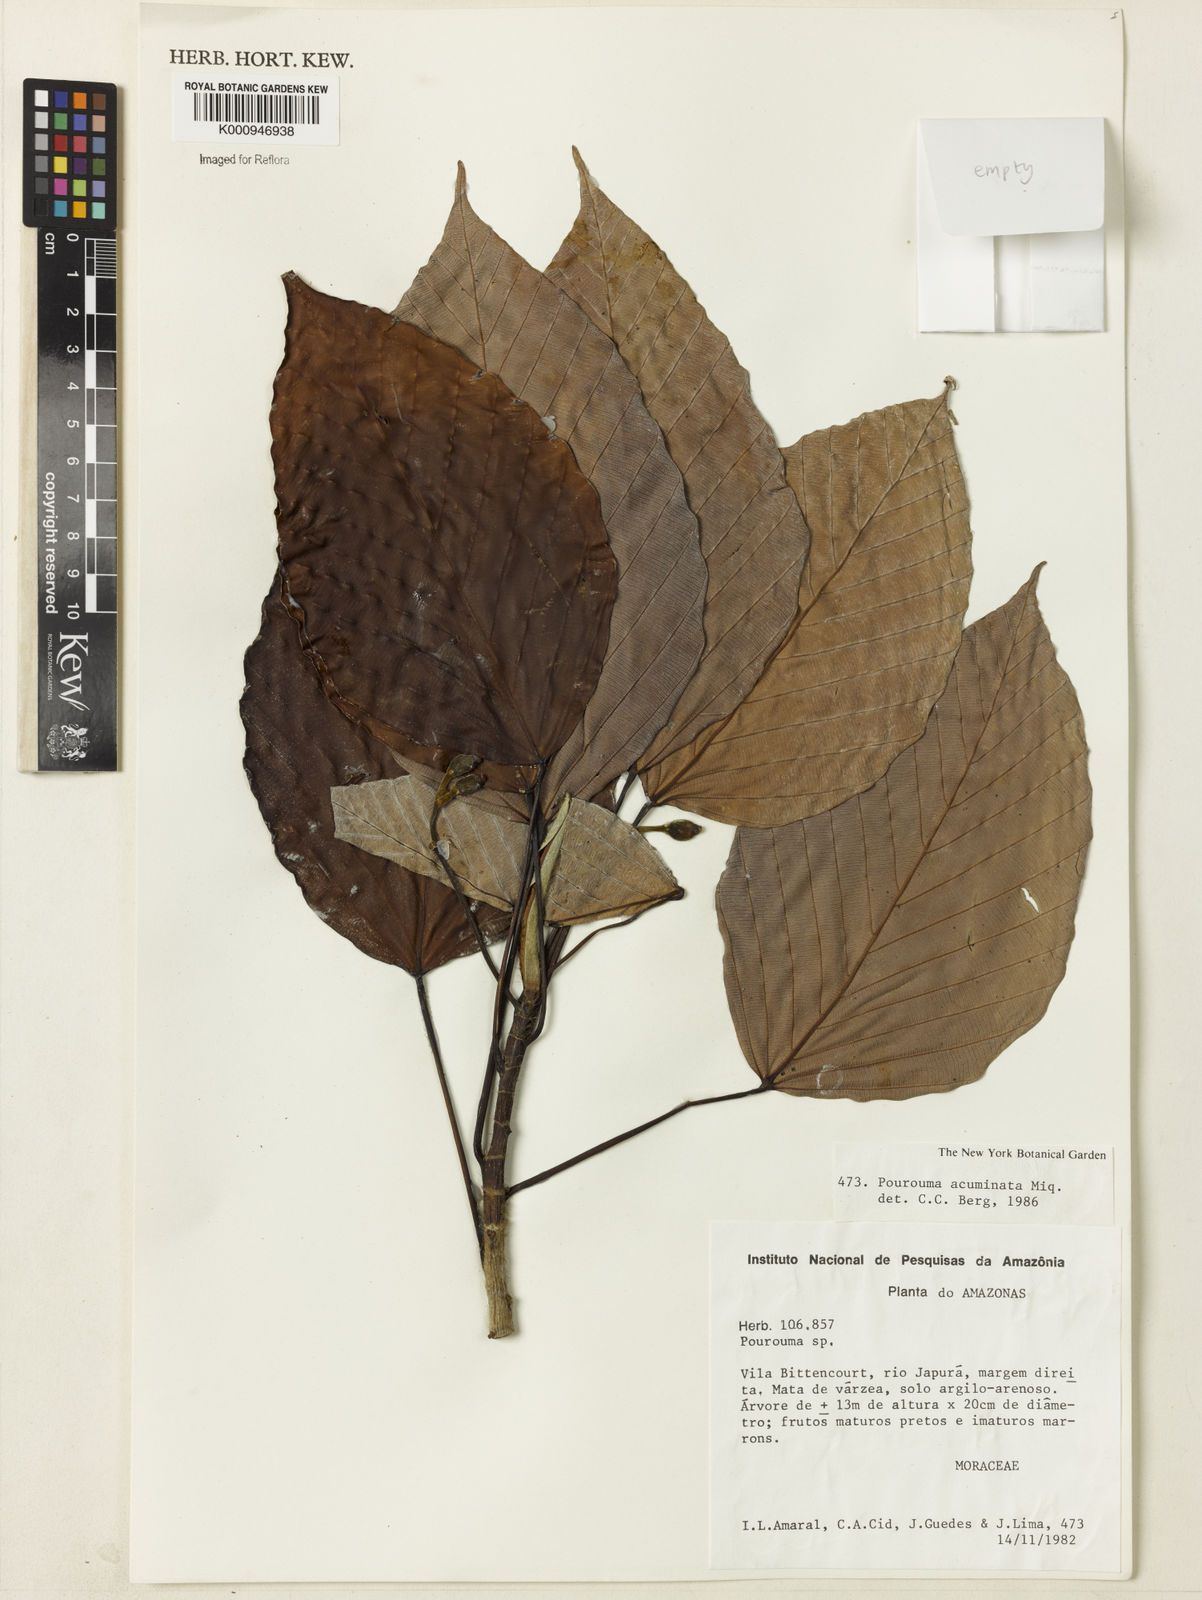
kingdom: Plantae
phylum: Tracheophyta
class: Magnoliopsida
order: Rosales
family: Urticaceae
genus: Pourouma
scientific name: Pourouma acuminata
